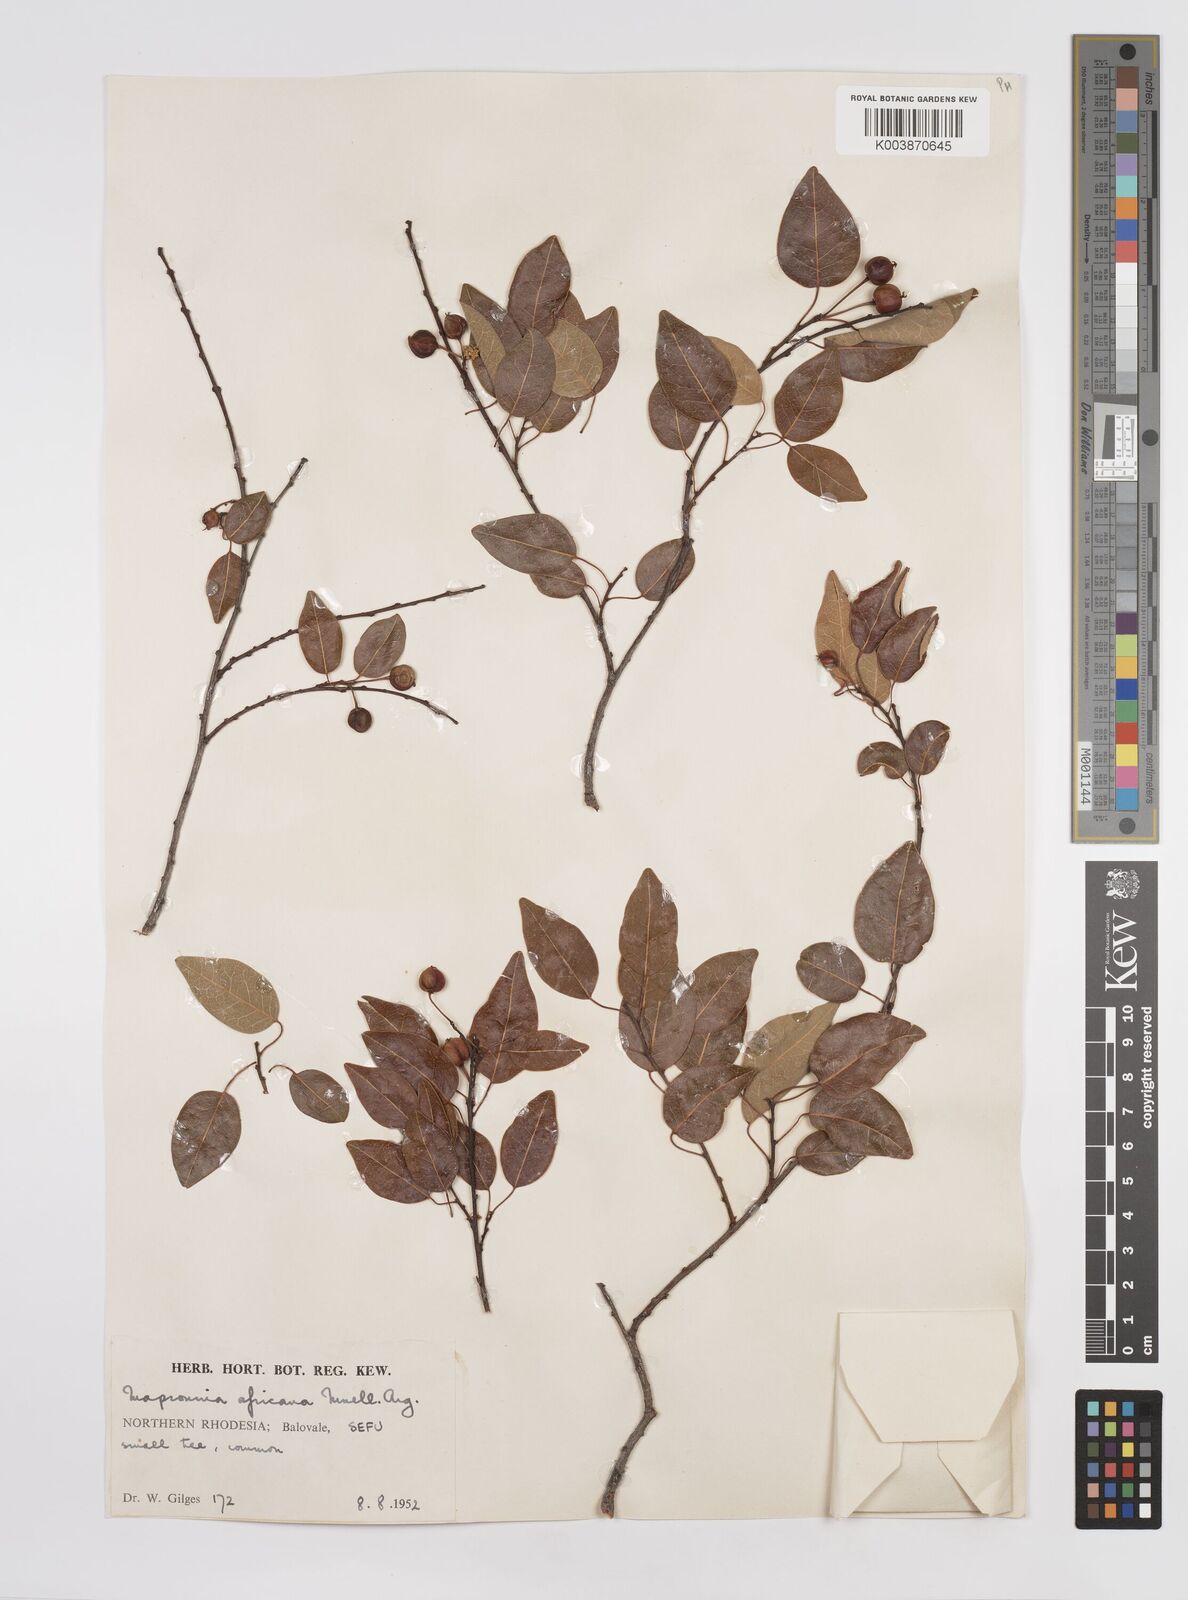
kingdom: Plantae
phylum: Tracheophyta
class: Magnoliopsida
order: Malpighiales
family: Euphorbiaceae
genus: Maprounea
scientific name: Maprounea africana
